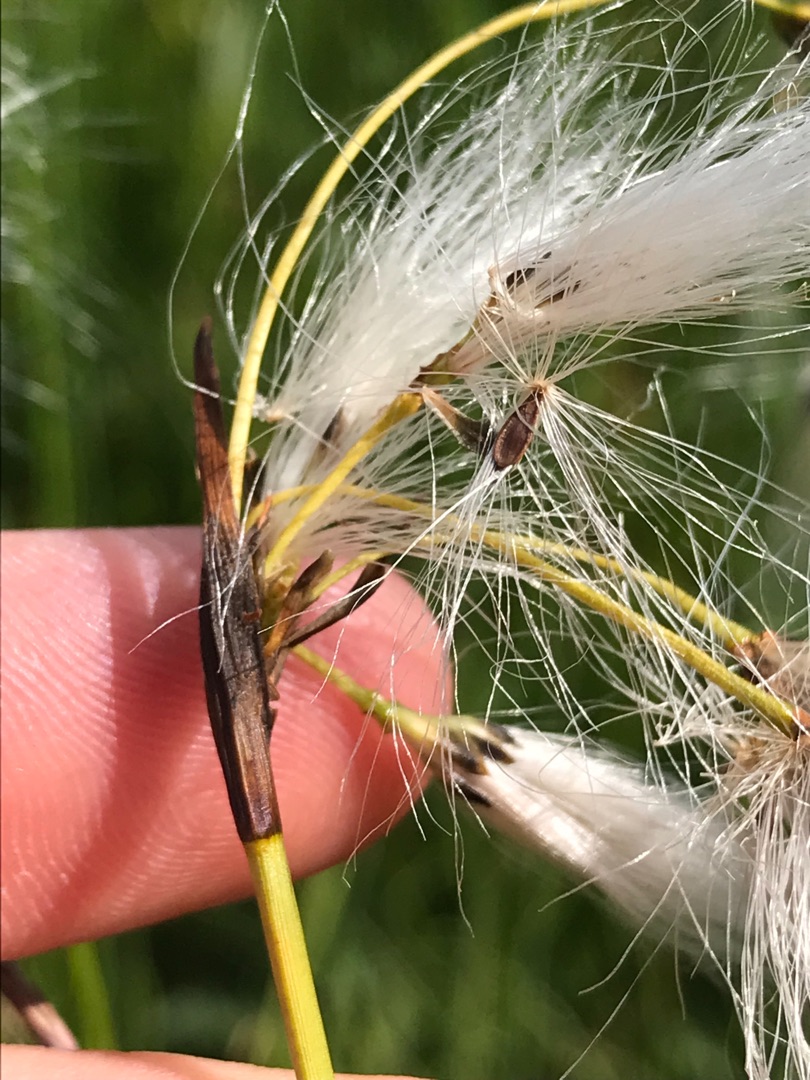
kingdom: Plantae
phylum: Tracheophyta
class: Liliopsida
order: Poales
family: Cyperaceae
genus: Eriophorum
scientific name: Eriophorum latifolium
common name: Bredbladet kæruld
